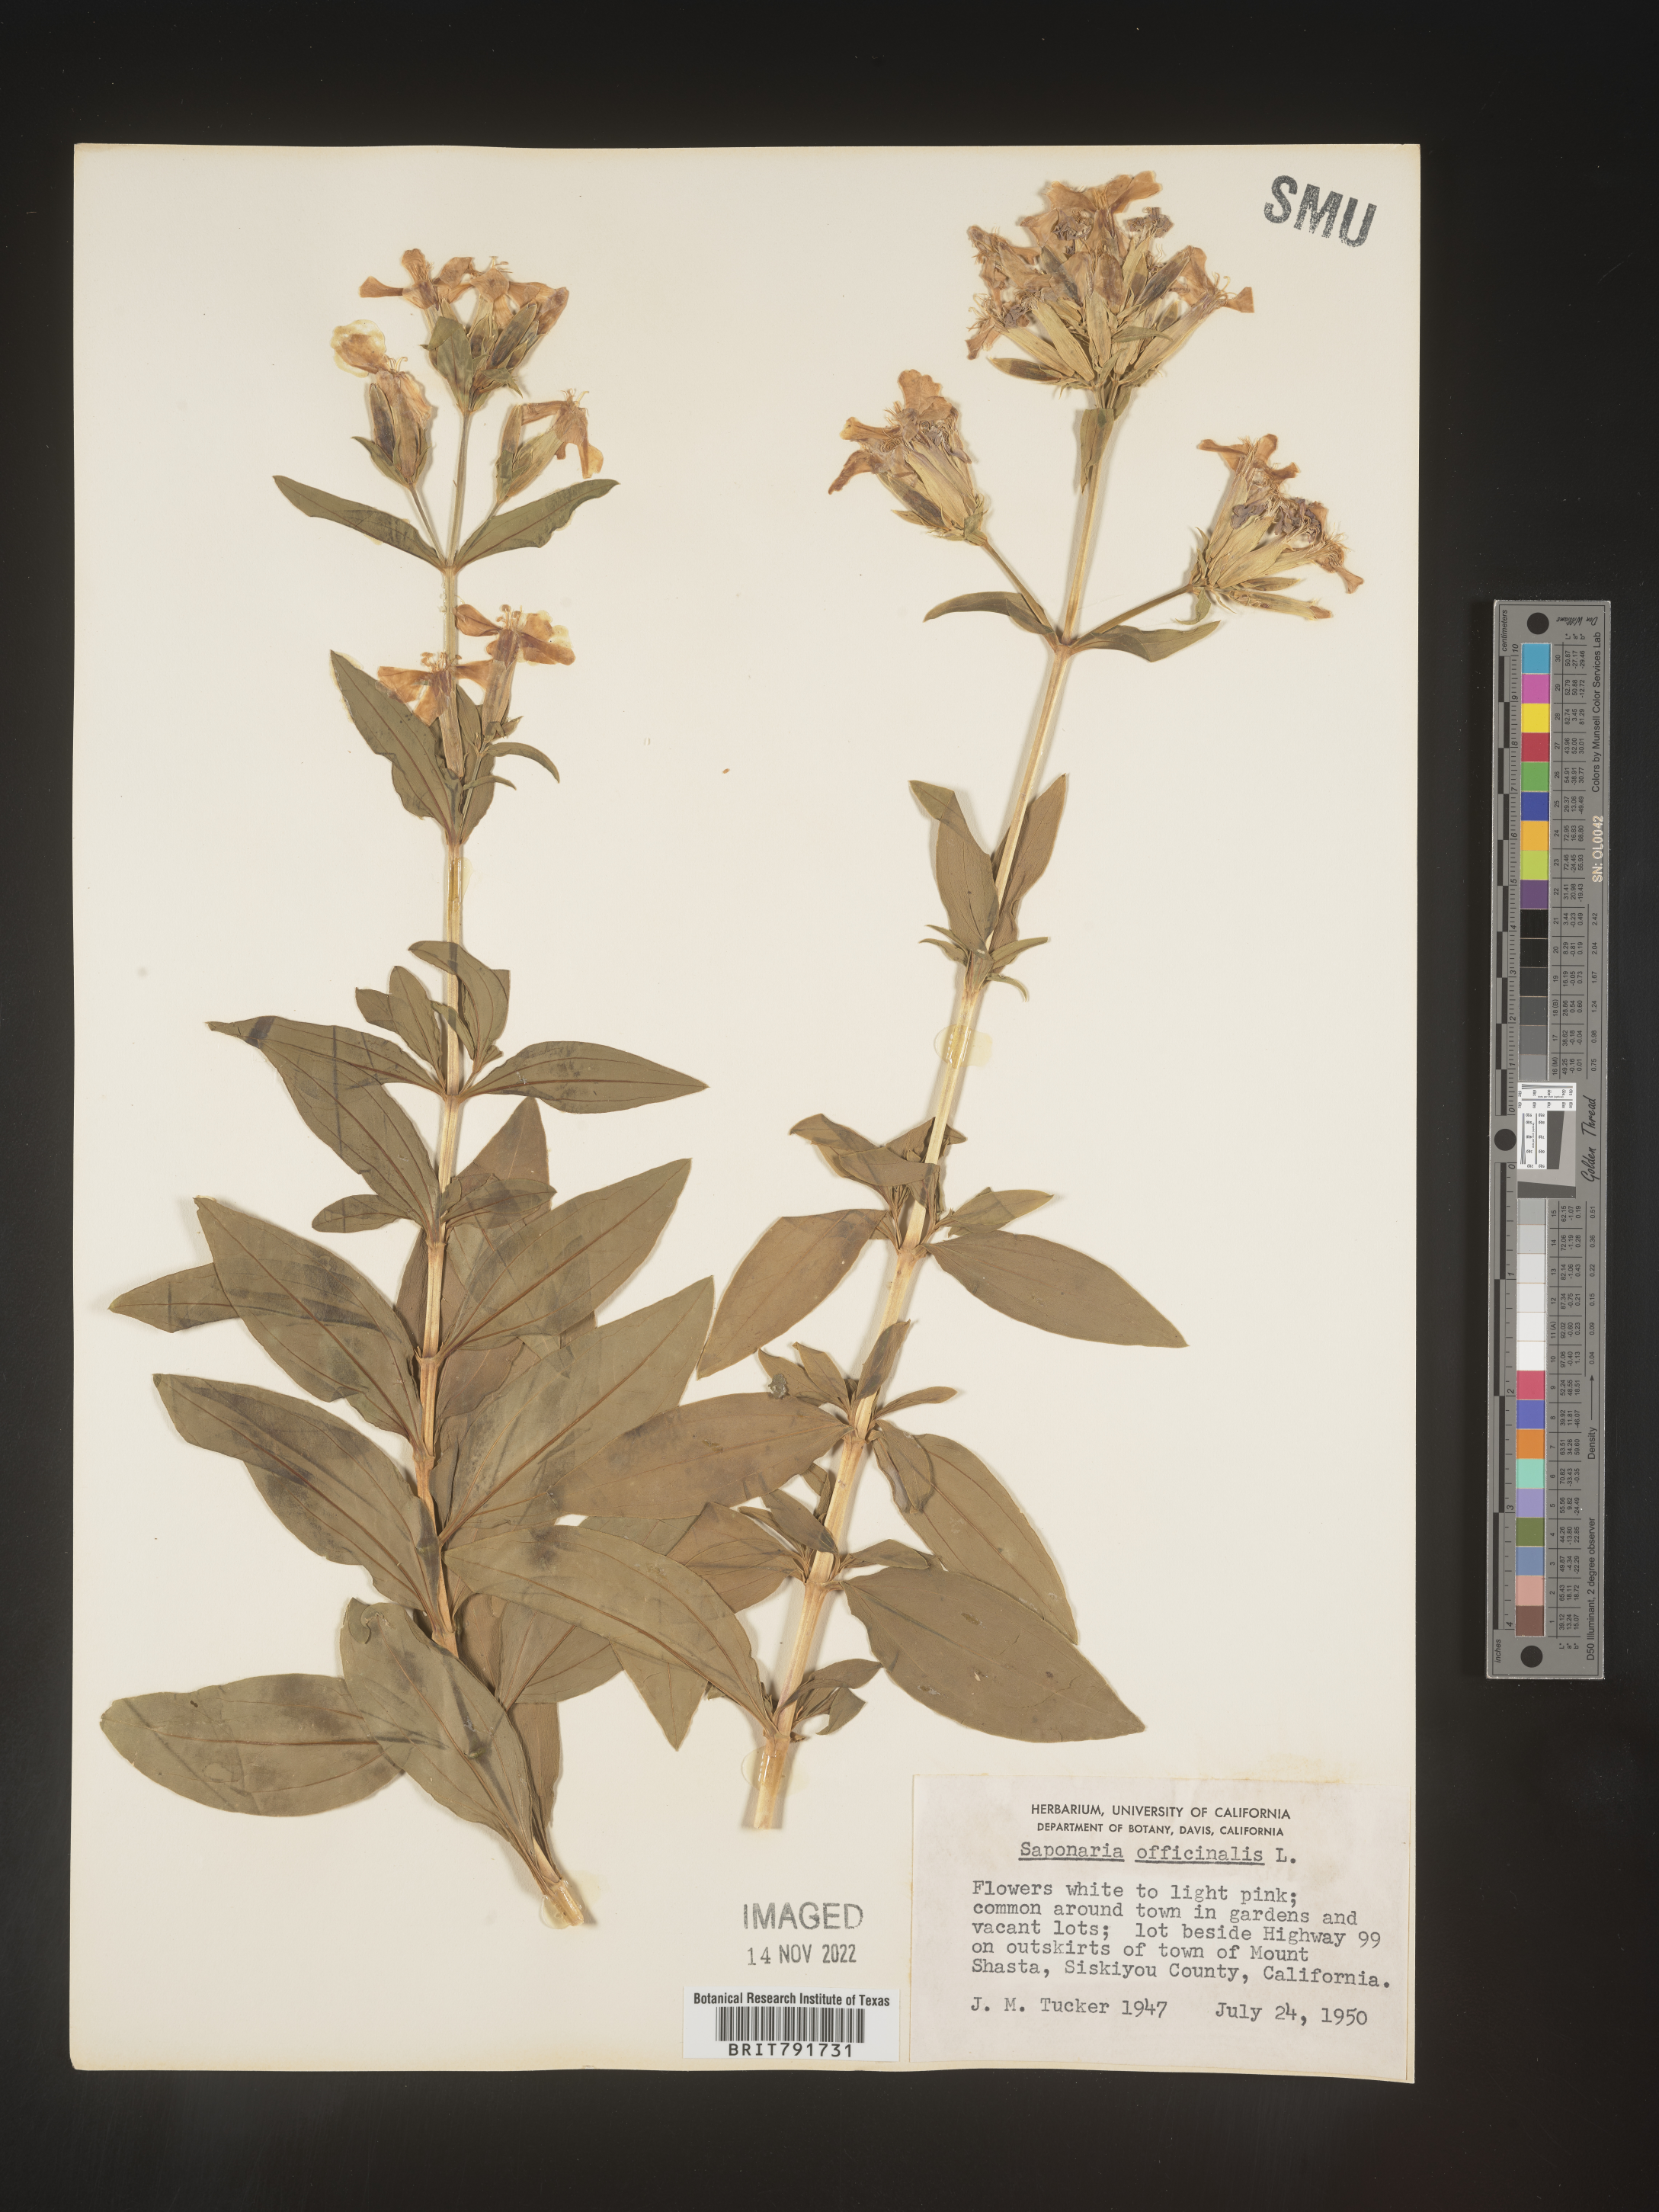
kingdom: Plantae
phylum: Tracheophyta
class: Magnoliopsida
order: Caryophyllales
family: Caryophyllaceae
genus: Saponaria
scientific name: Saponaria officinalis
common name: Soapwort
